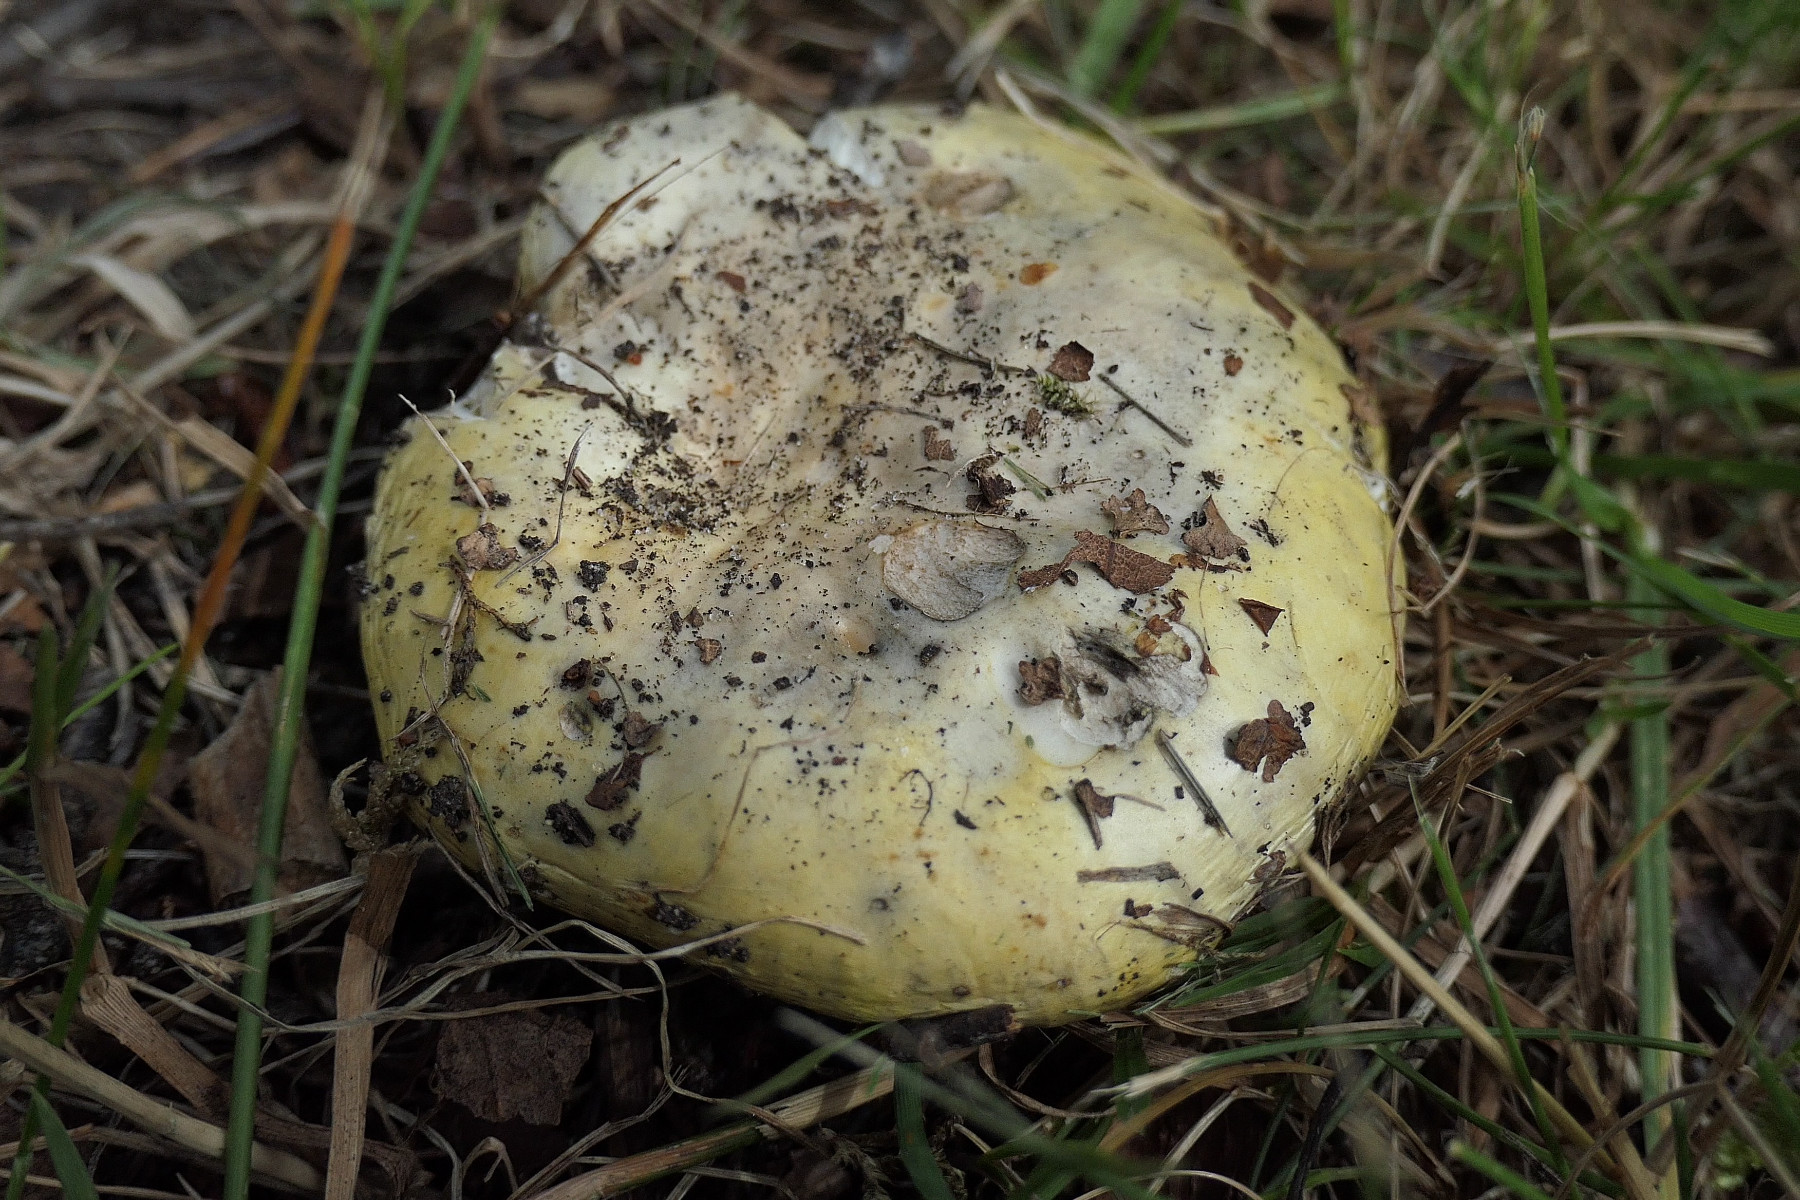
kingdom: Fungi
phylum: Basidiomycota
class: Agaricomycetes
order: Russulales
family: Russulaceae
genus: Russula
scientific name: Russula claroflava
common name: birke-skørhat
